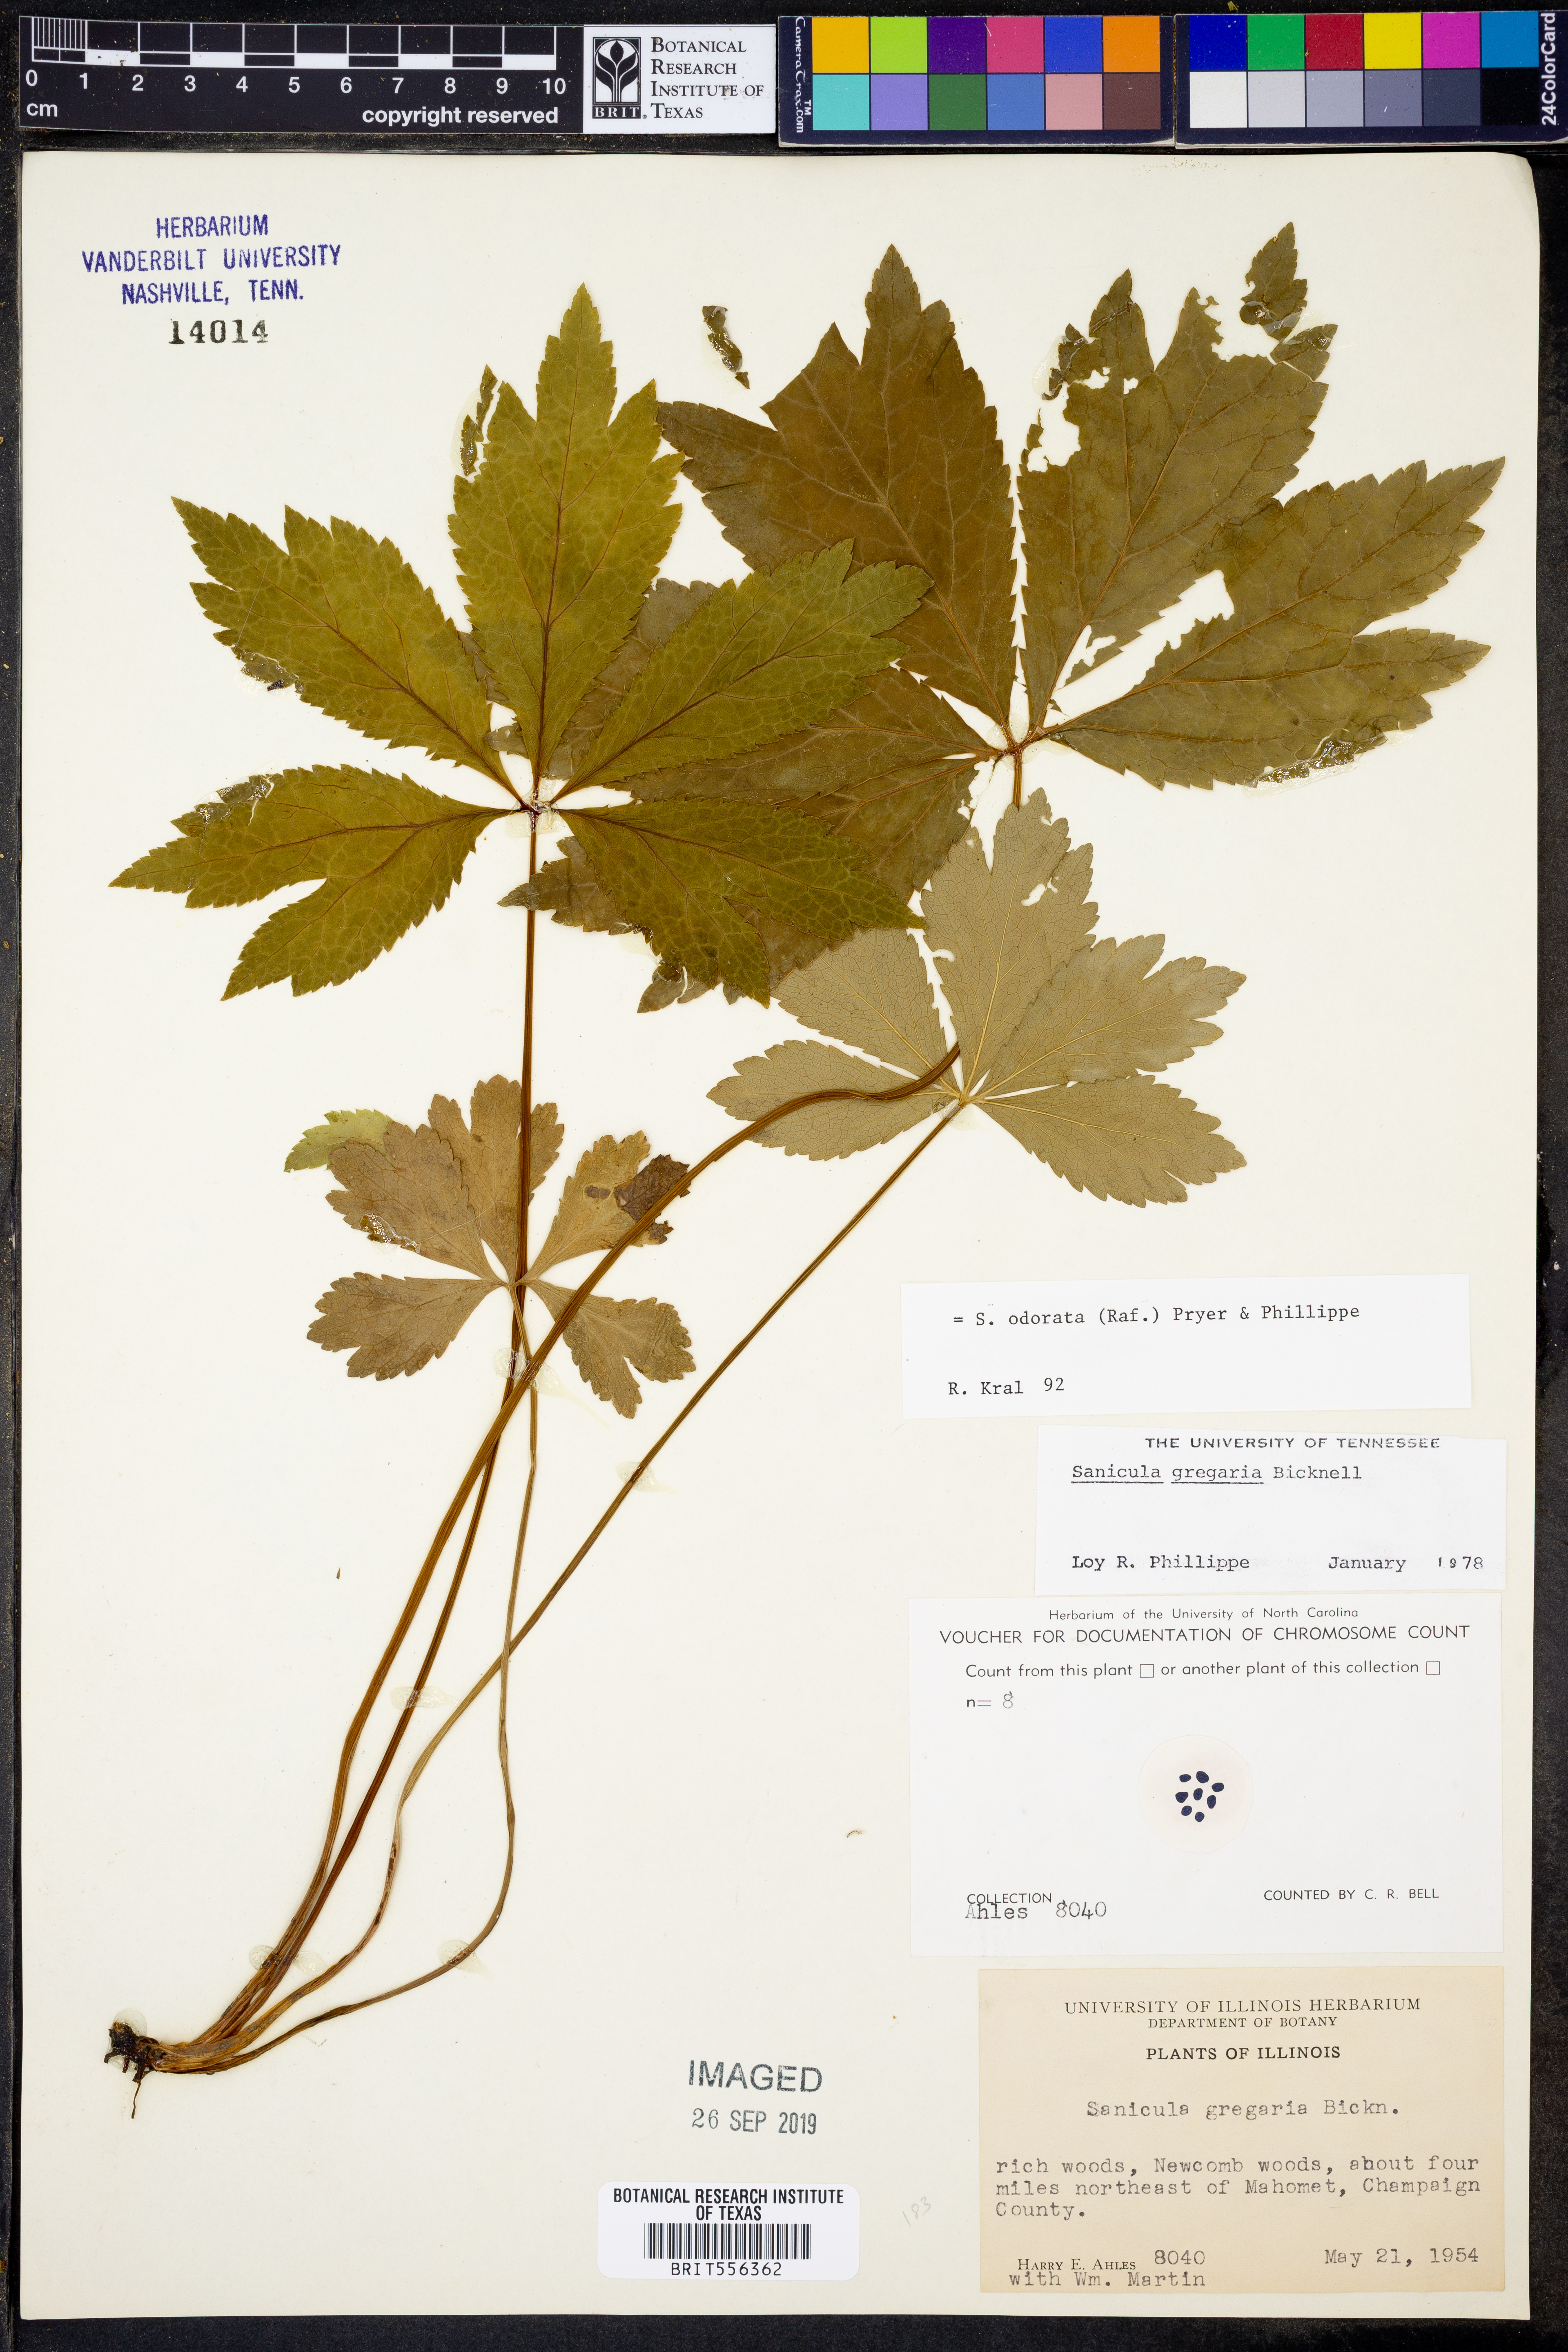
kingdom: Plantae
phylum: Tracheophyta
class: Magnoliopsida
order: Apiales
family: Apiaceae
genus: Sanicula
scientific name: Sanicula odorata
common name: Cluster sanicle
